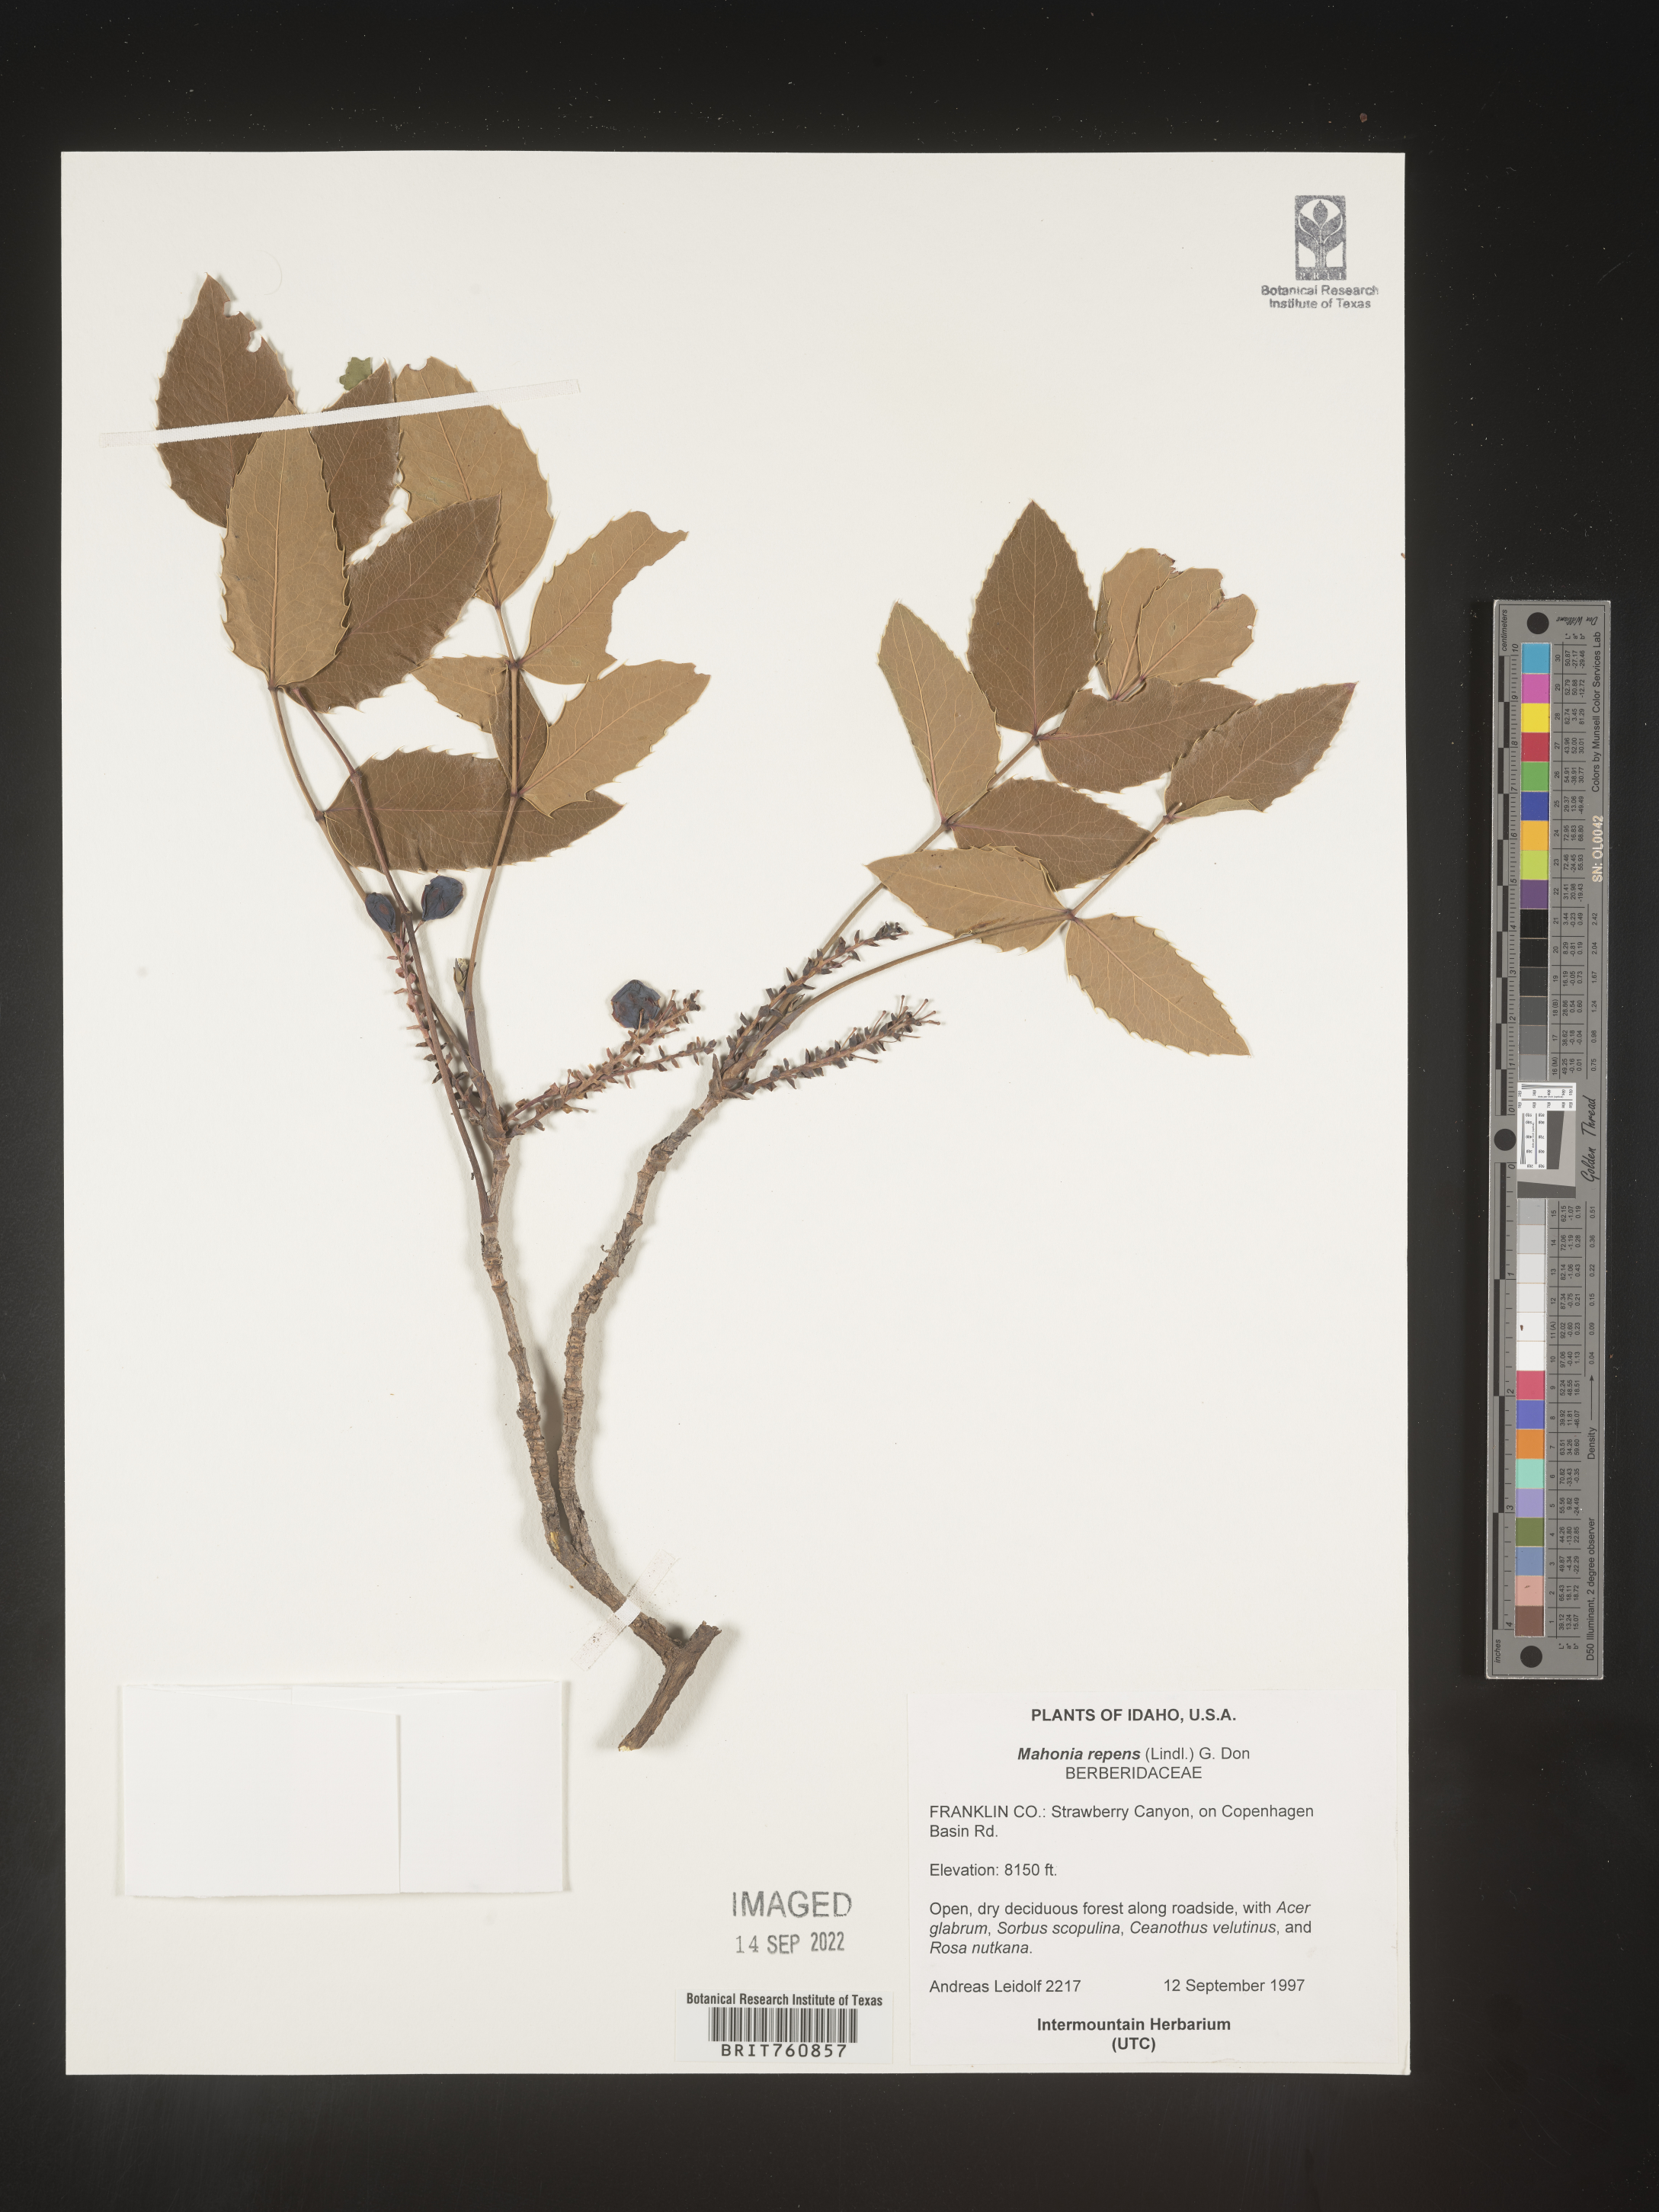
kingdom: Plantae
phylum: Tracheophyta
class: Magnoliopsida
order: Ranunculales
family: Berberidaceae
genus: Mahonia
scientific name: Mahonia repens
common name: Creeping oregon-grape
